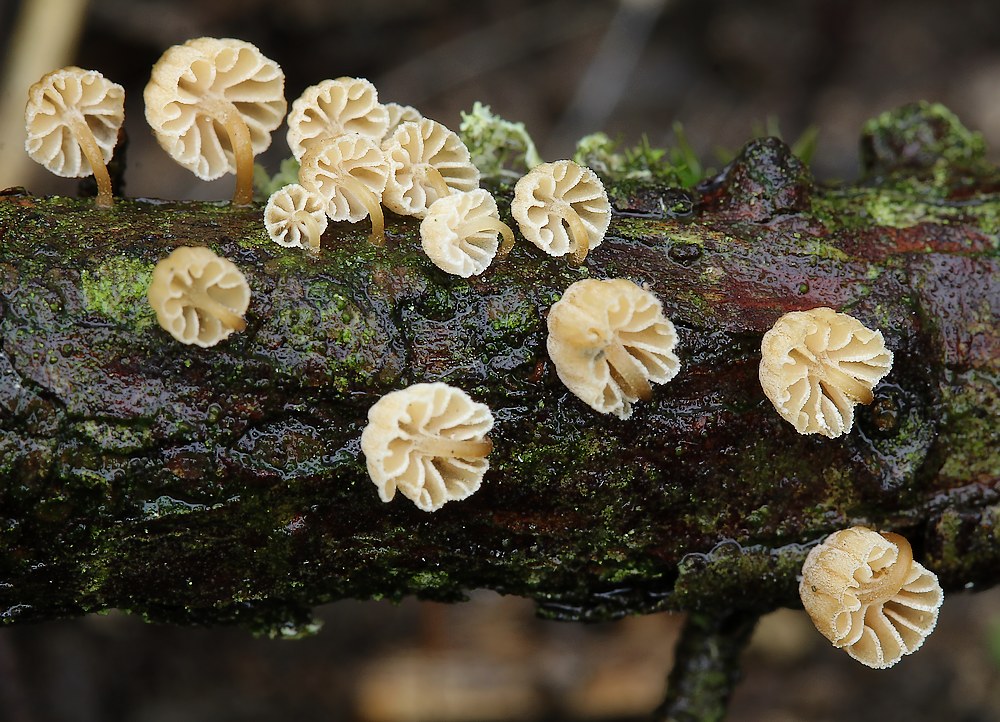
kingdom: Fungi
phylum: Basidiomycota
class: Agaricomycetes
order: Agaricales
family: Mycenaceae
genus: Mycena
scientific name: Mycena juniperina
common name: ene-Huesvamp
